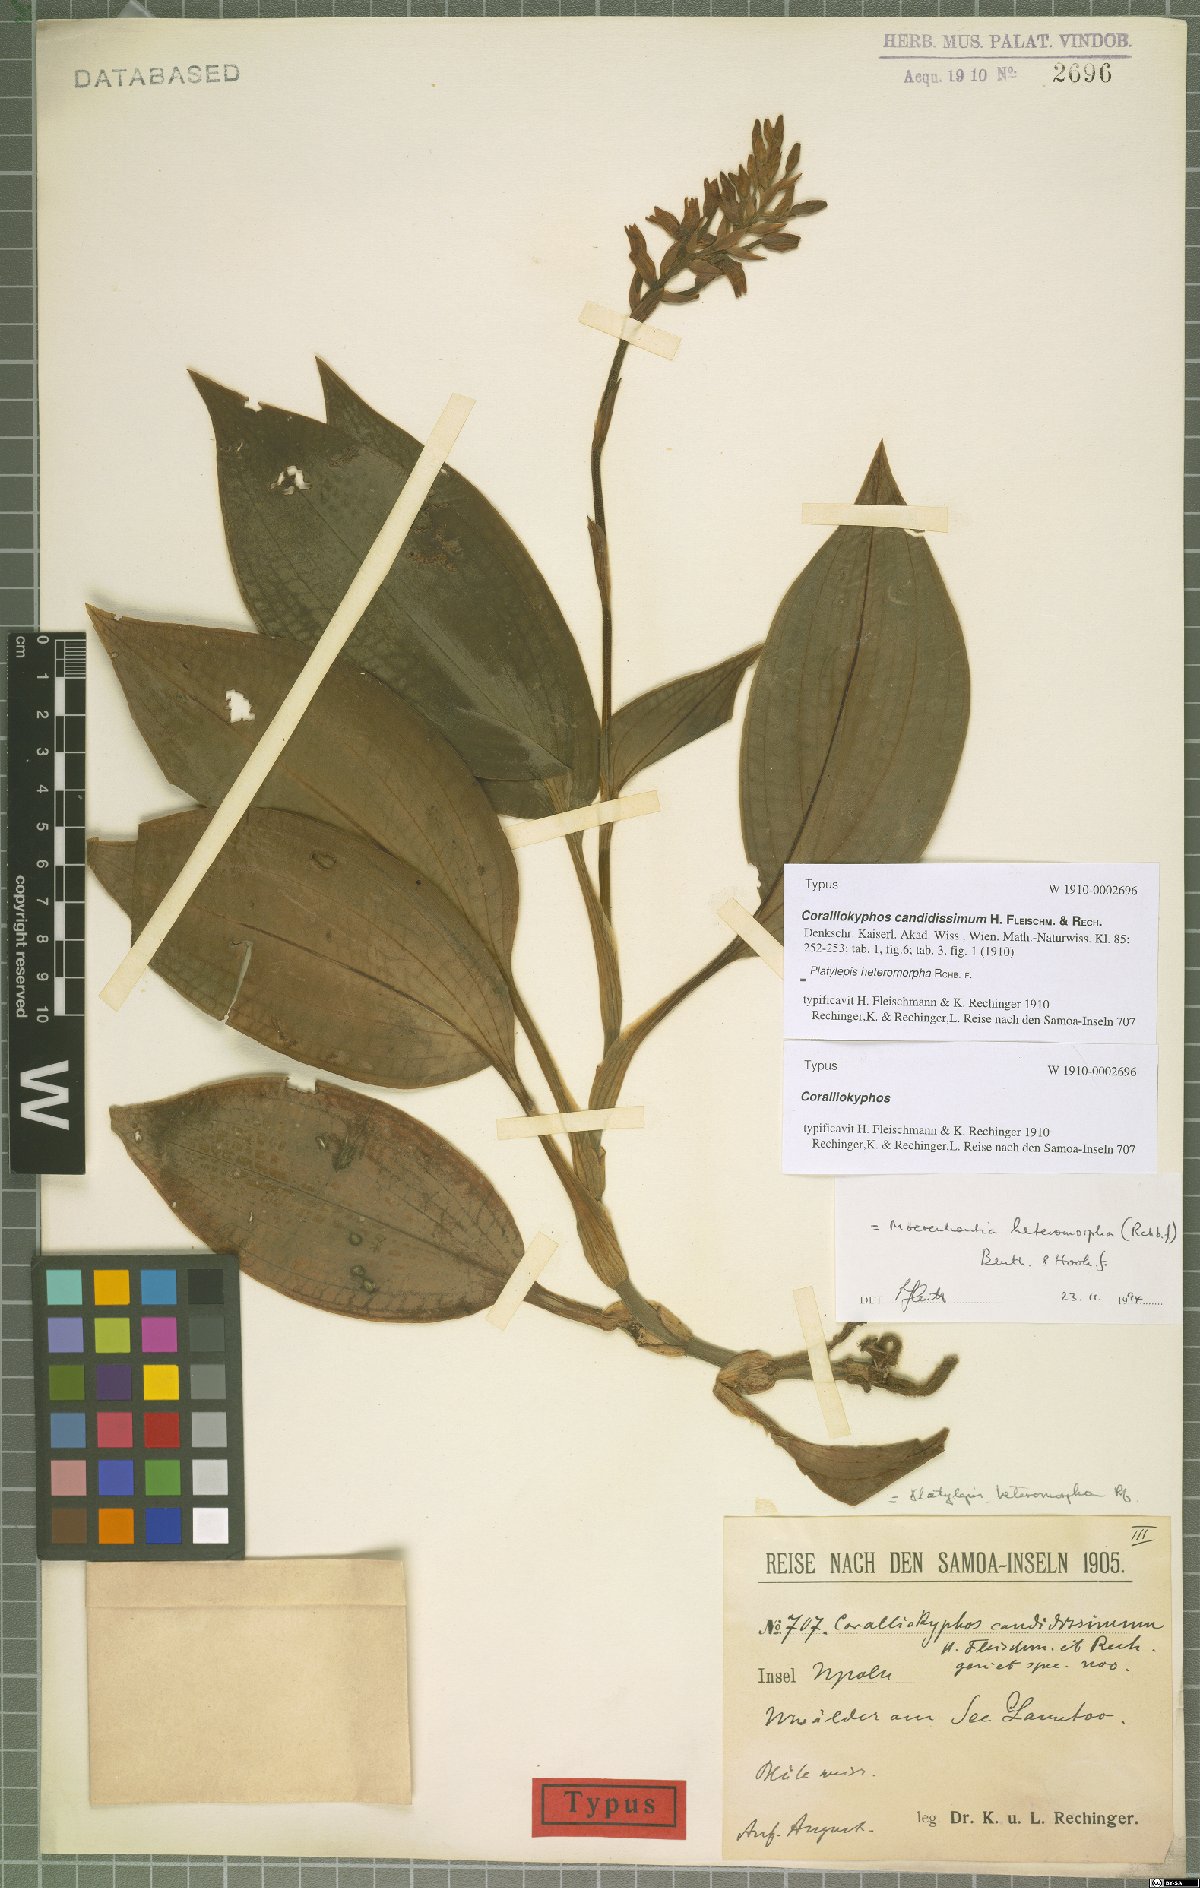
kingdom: Plantae
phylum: Tracheophyta
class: Liliopsida
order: Asparagales
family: Orchidaceae
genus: Platylepis
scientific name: Platylepis heteromorpha
